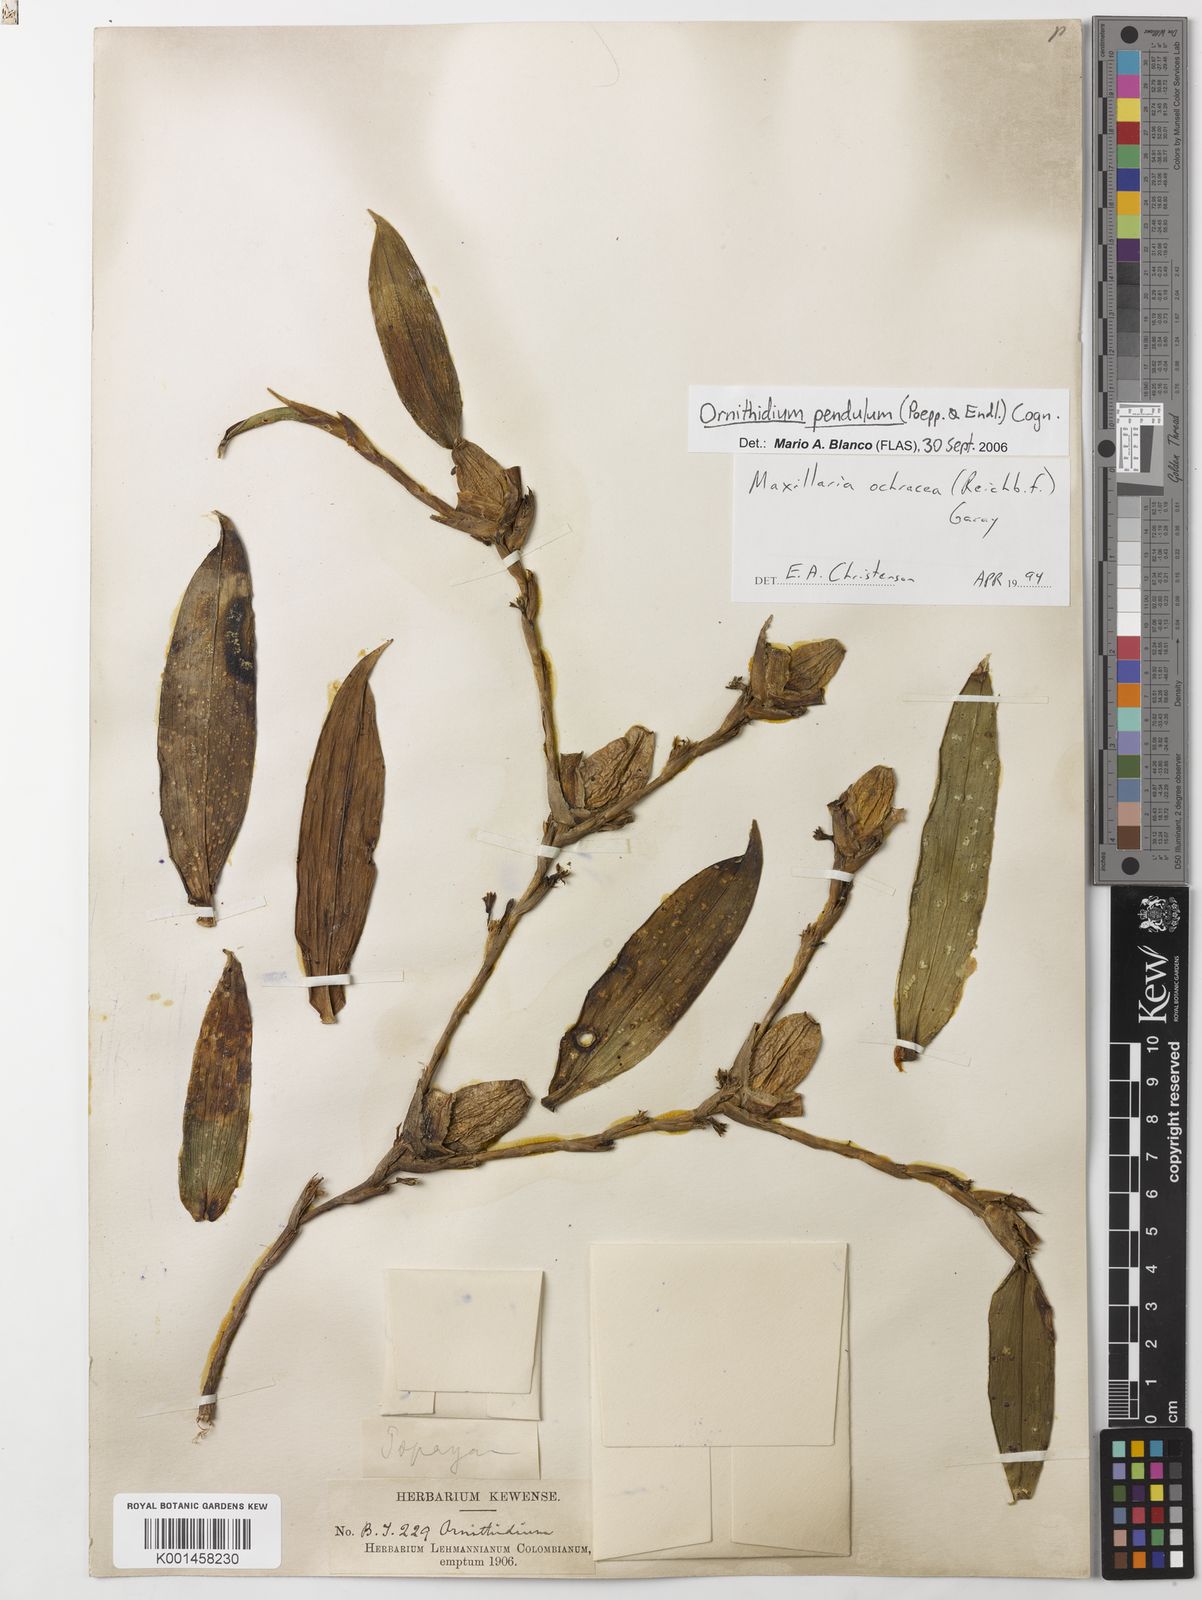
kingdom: Plantae
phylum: Tracheophyta
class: Liliopsida
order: Asparagales
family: Orchidaceae
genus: Maxillaria
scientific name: Maxillaria pendula
